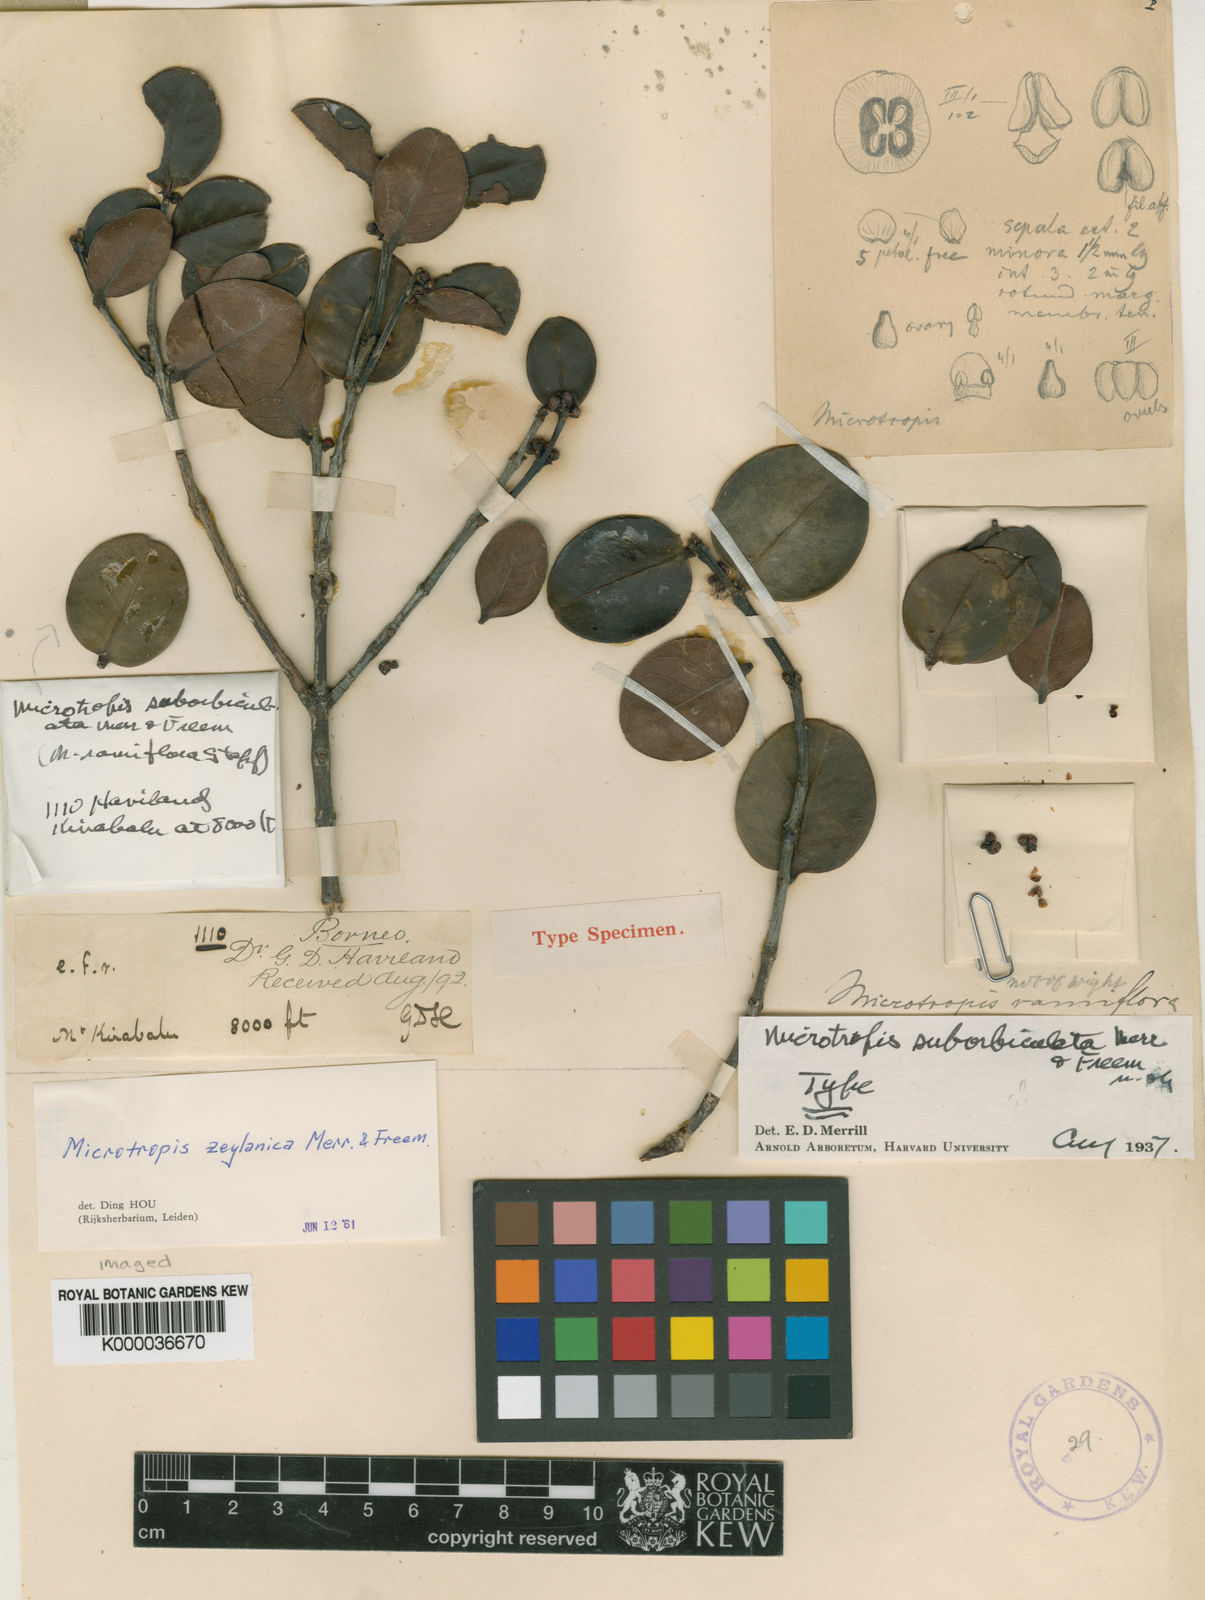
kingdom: Plantae
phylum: Tracheophyta
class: Magnoliopsida
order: Celastrales
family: Celastraceae
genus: Microtropis
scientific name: Microtropis wallichiana
